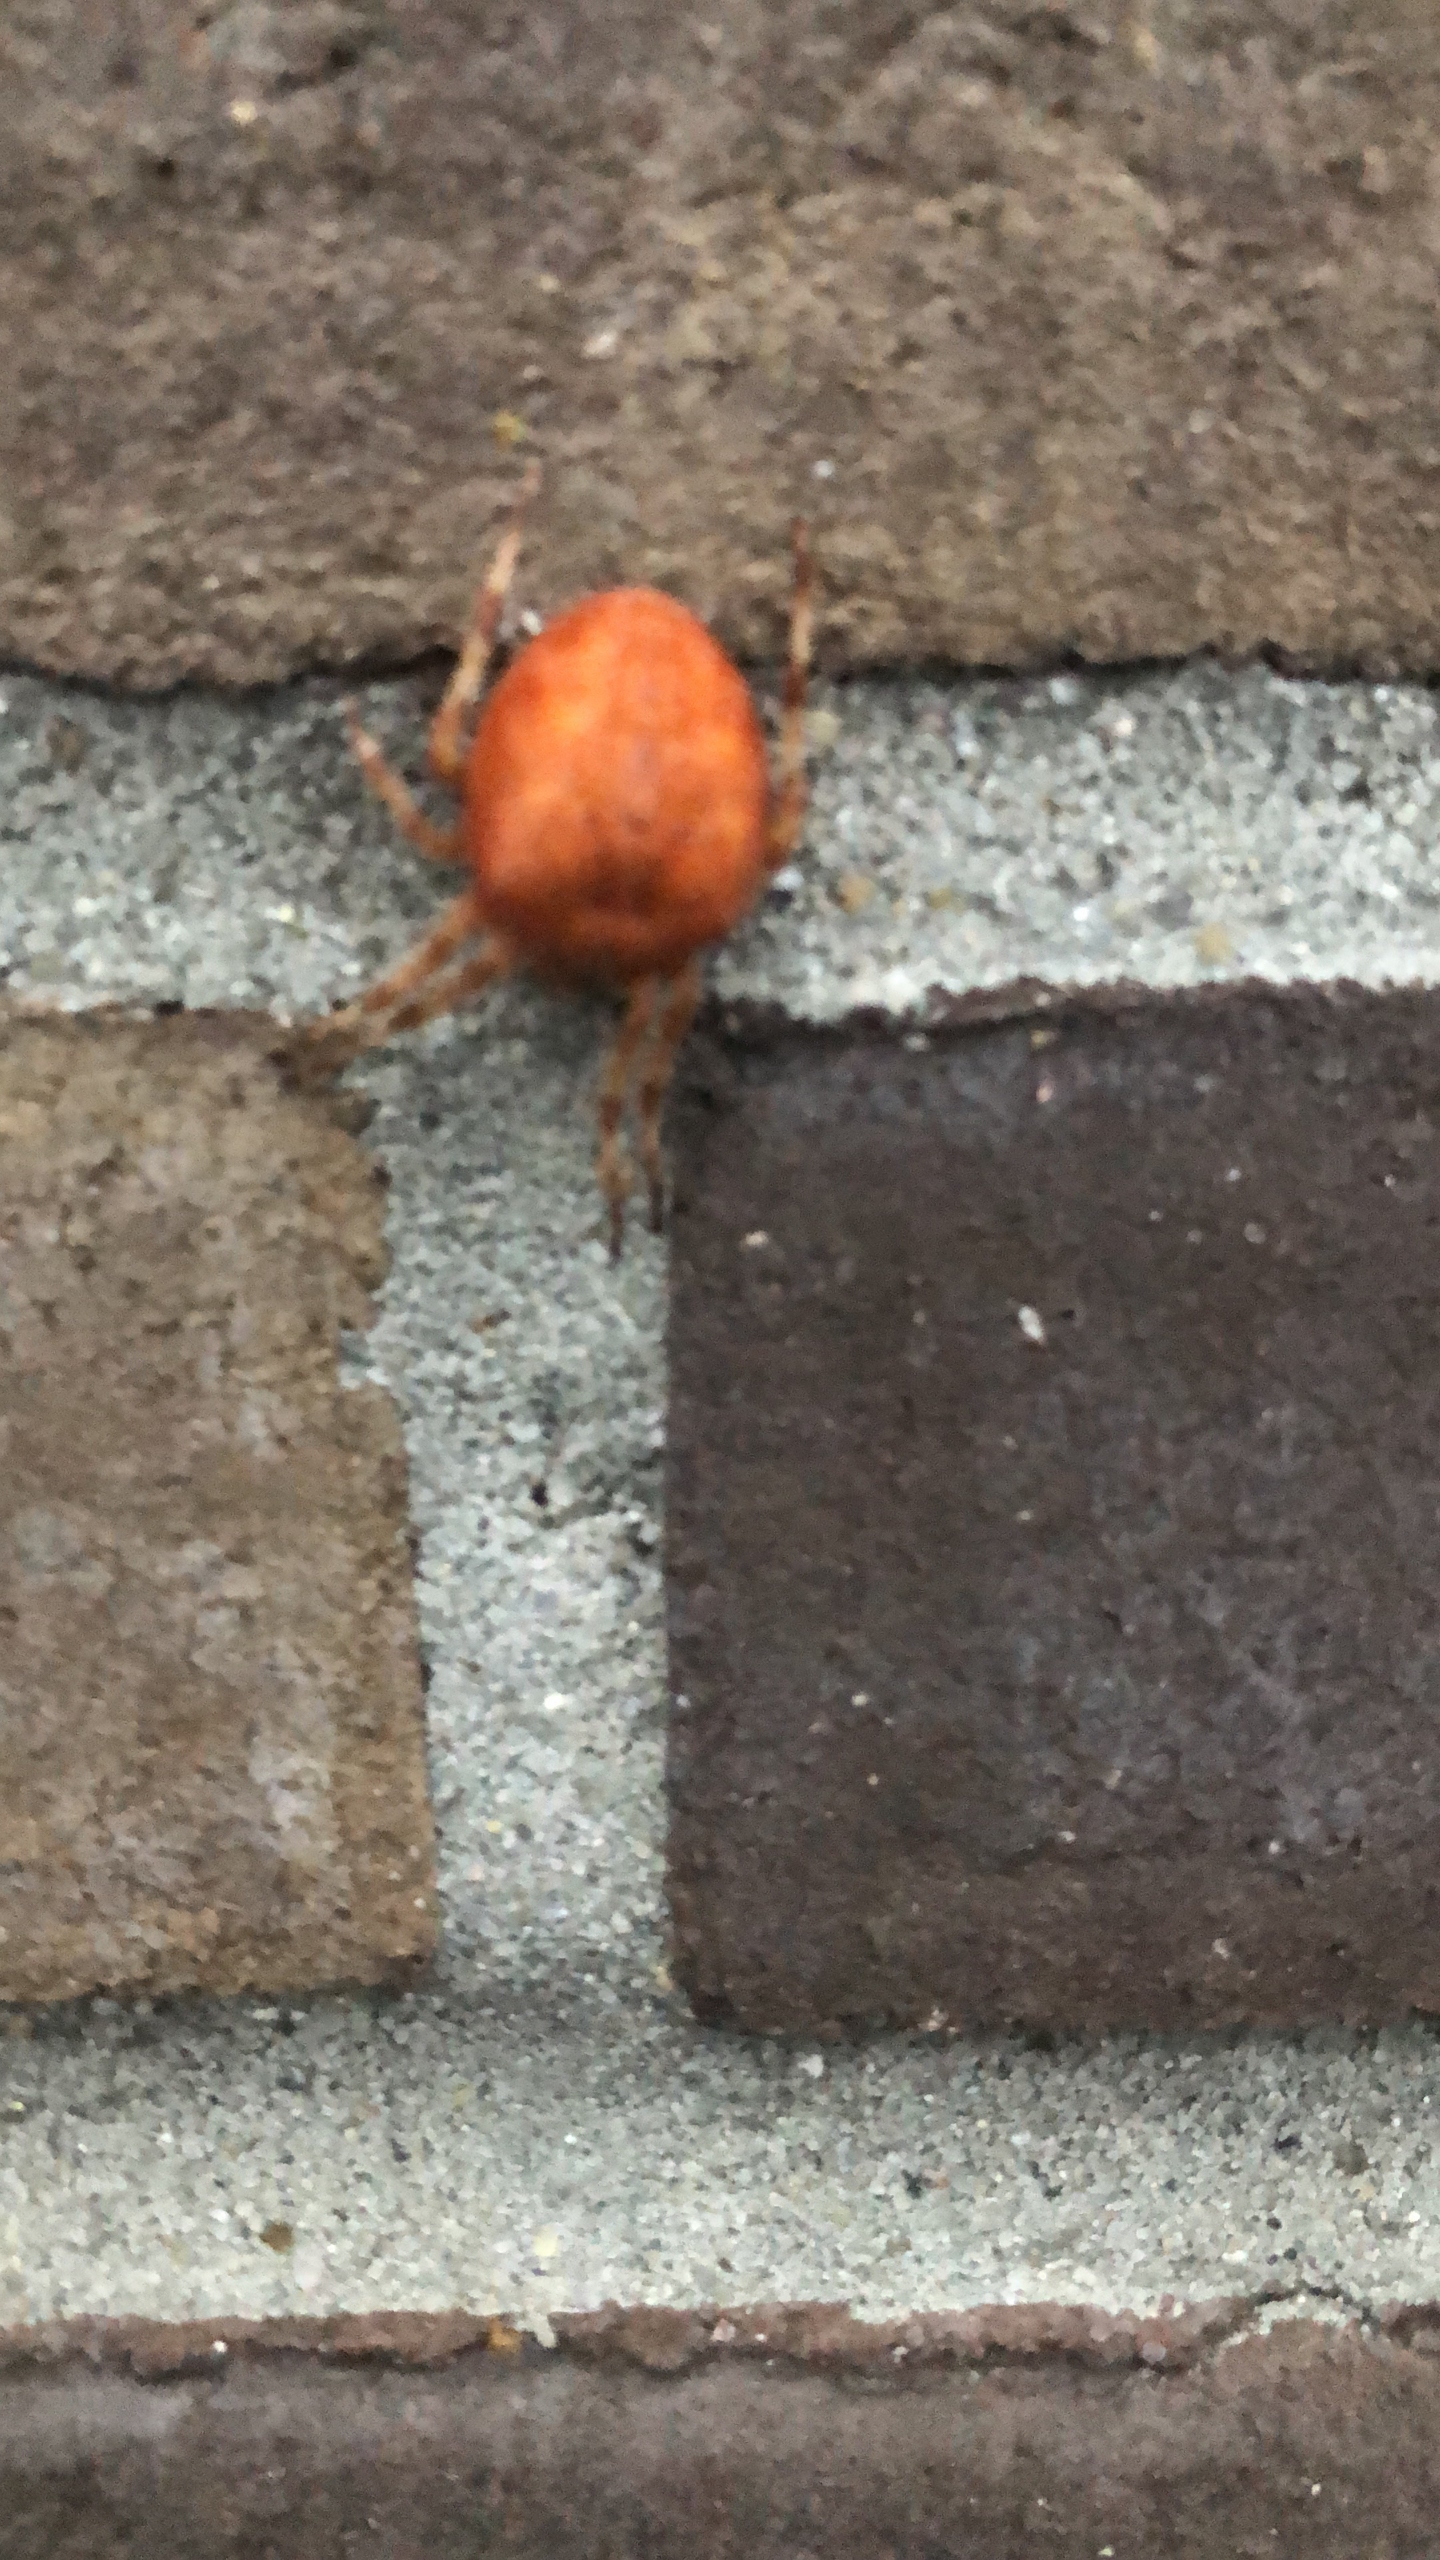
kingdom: Animalia
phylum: Arthropoda
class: Arachnida
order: Araneae
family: Araneidae
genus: Araneus
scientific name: Araneus diadematus
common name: Korsedderkop
